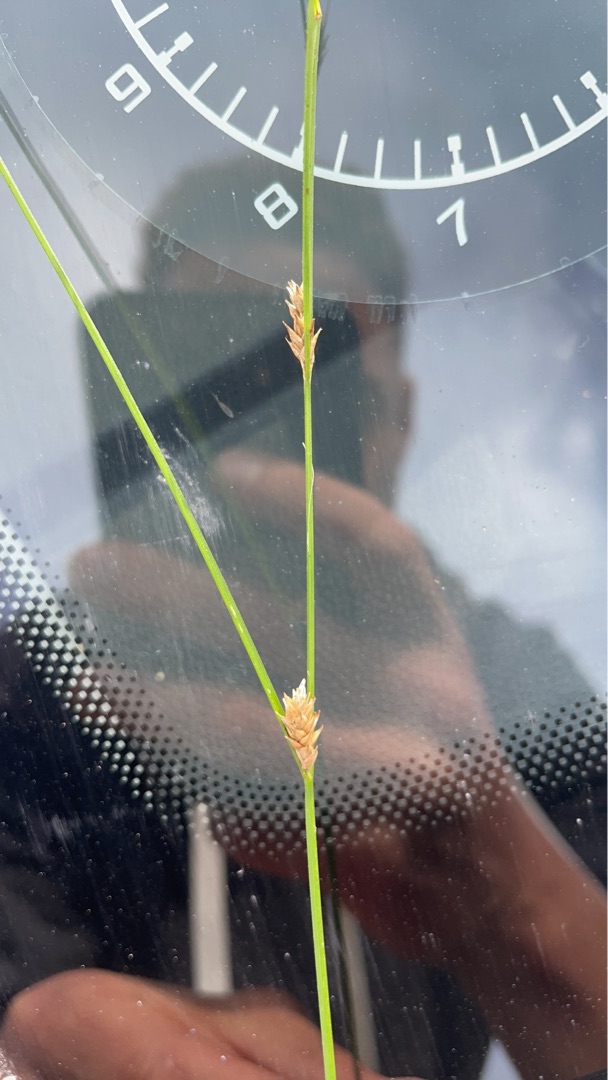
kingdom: Plantae
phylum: Tracheophyta
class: Liliopsida
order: Poales
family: Cyperaceae
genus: Carex
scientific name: Carex remota
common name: Akselblomstret star
